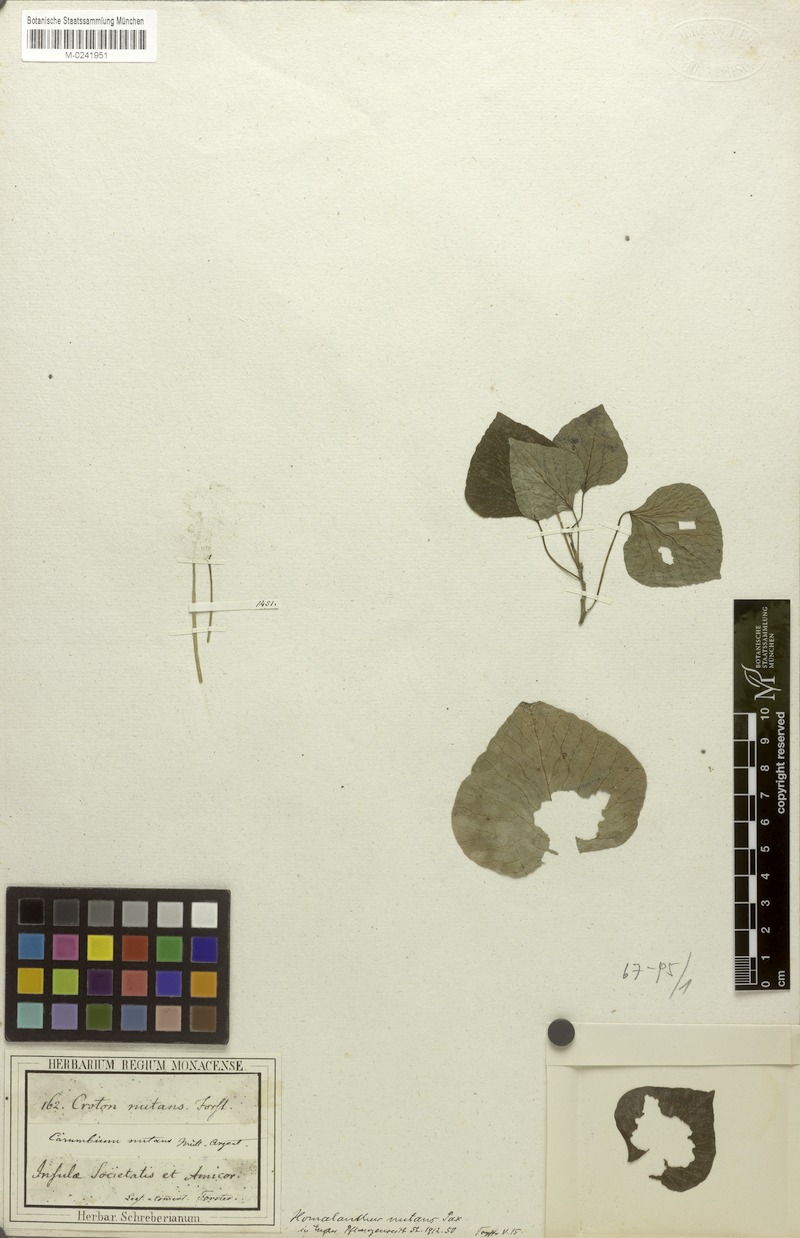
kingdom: Plantae
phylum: Tracheophyta
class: Magnoliopsida
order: Malpighiales
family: Euphorbiaceae
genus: Homalanthus
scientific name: Homalanthus nutans
